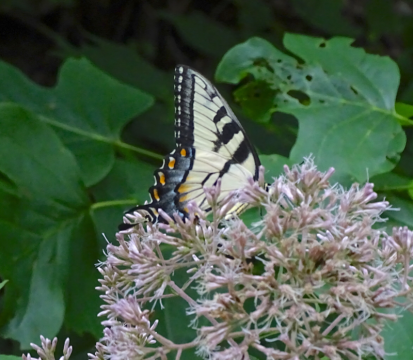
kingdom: Animalia
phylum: Arthropoda
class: Insecta
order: Lepidoptera
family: Papilionidae
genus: Pterourus
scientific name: Pterourus glaucus
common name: Eastern Tiger Swallowtail
